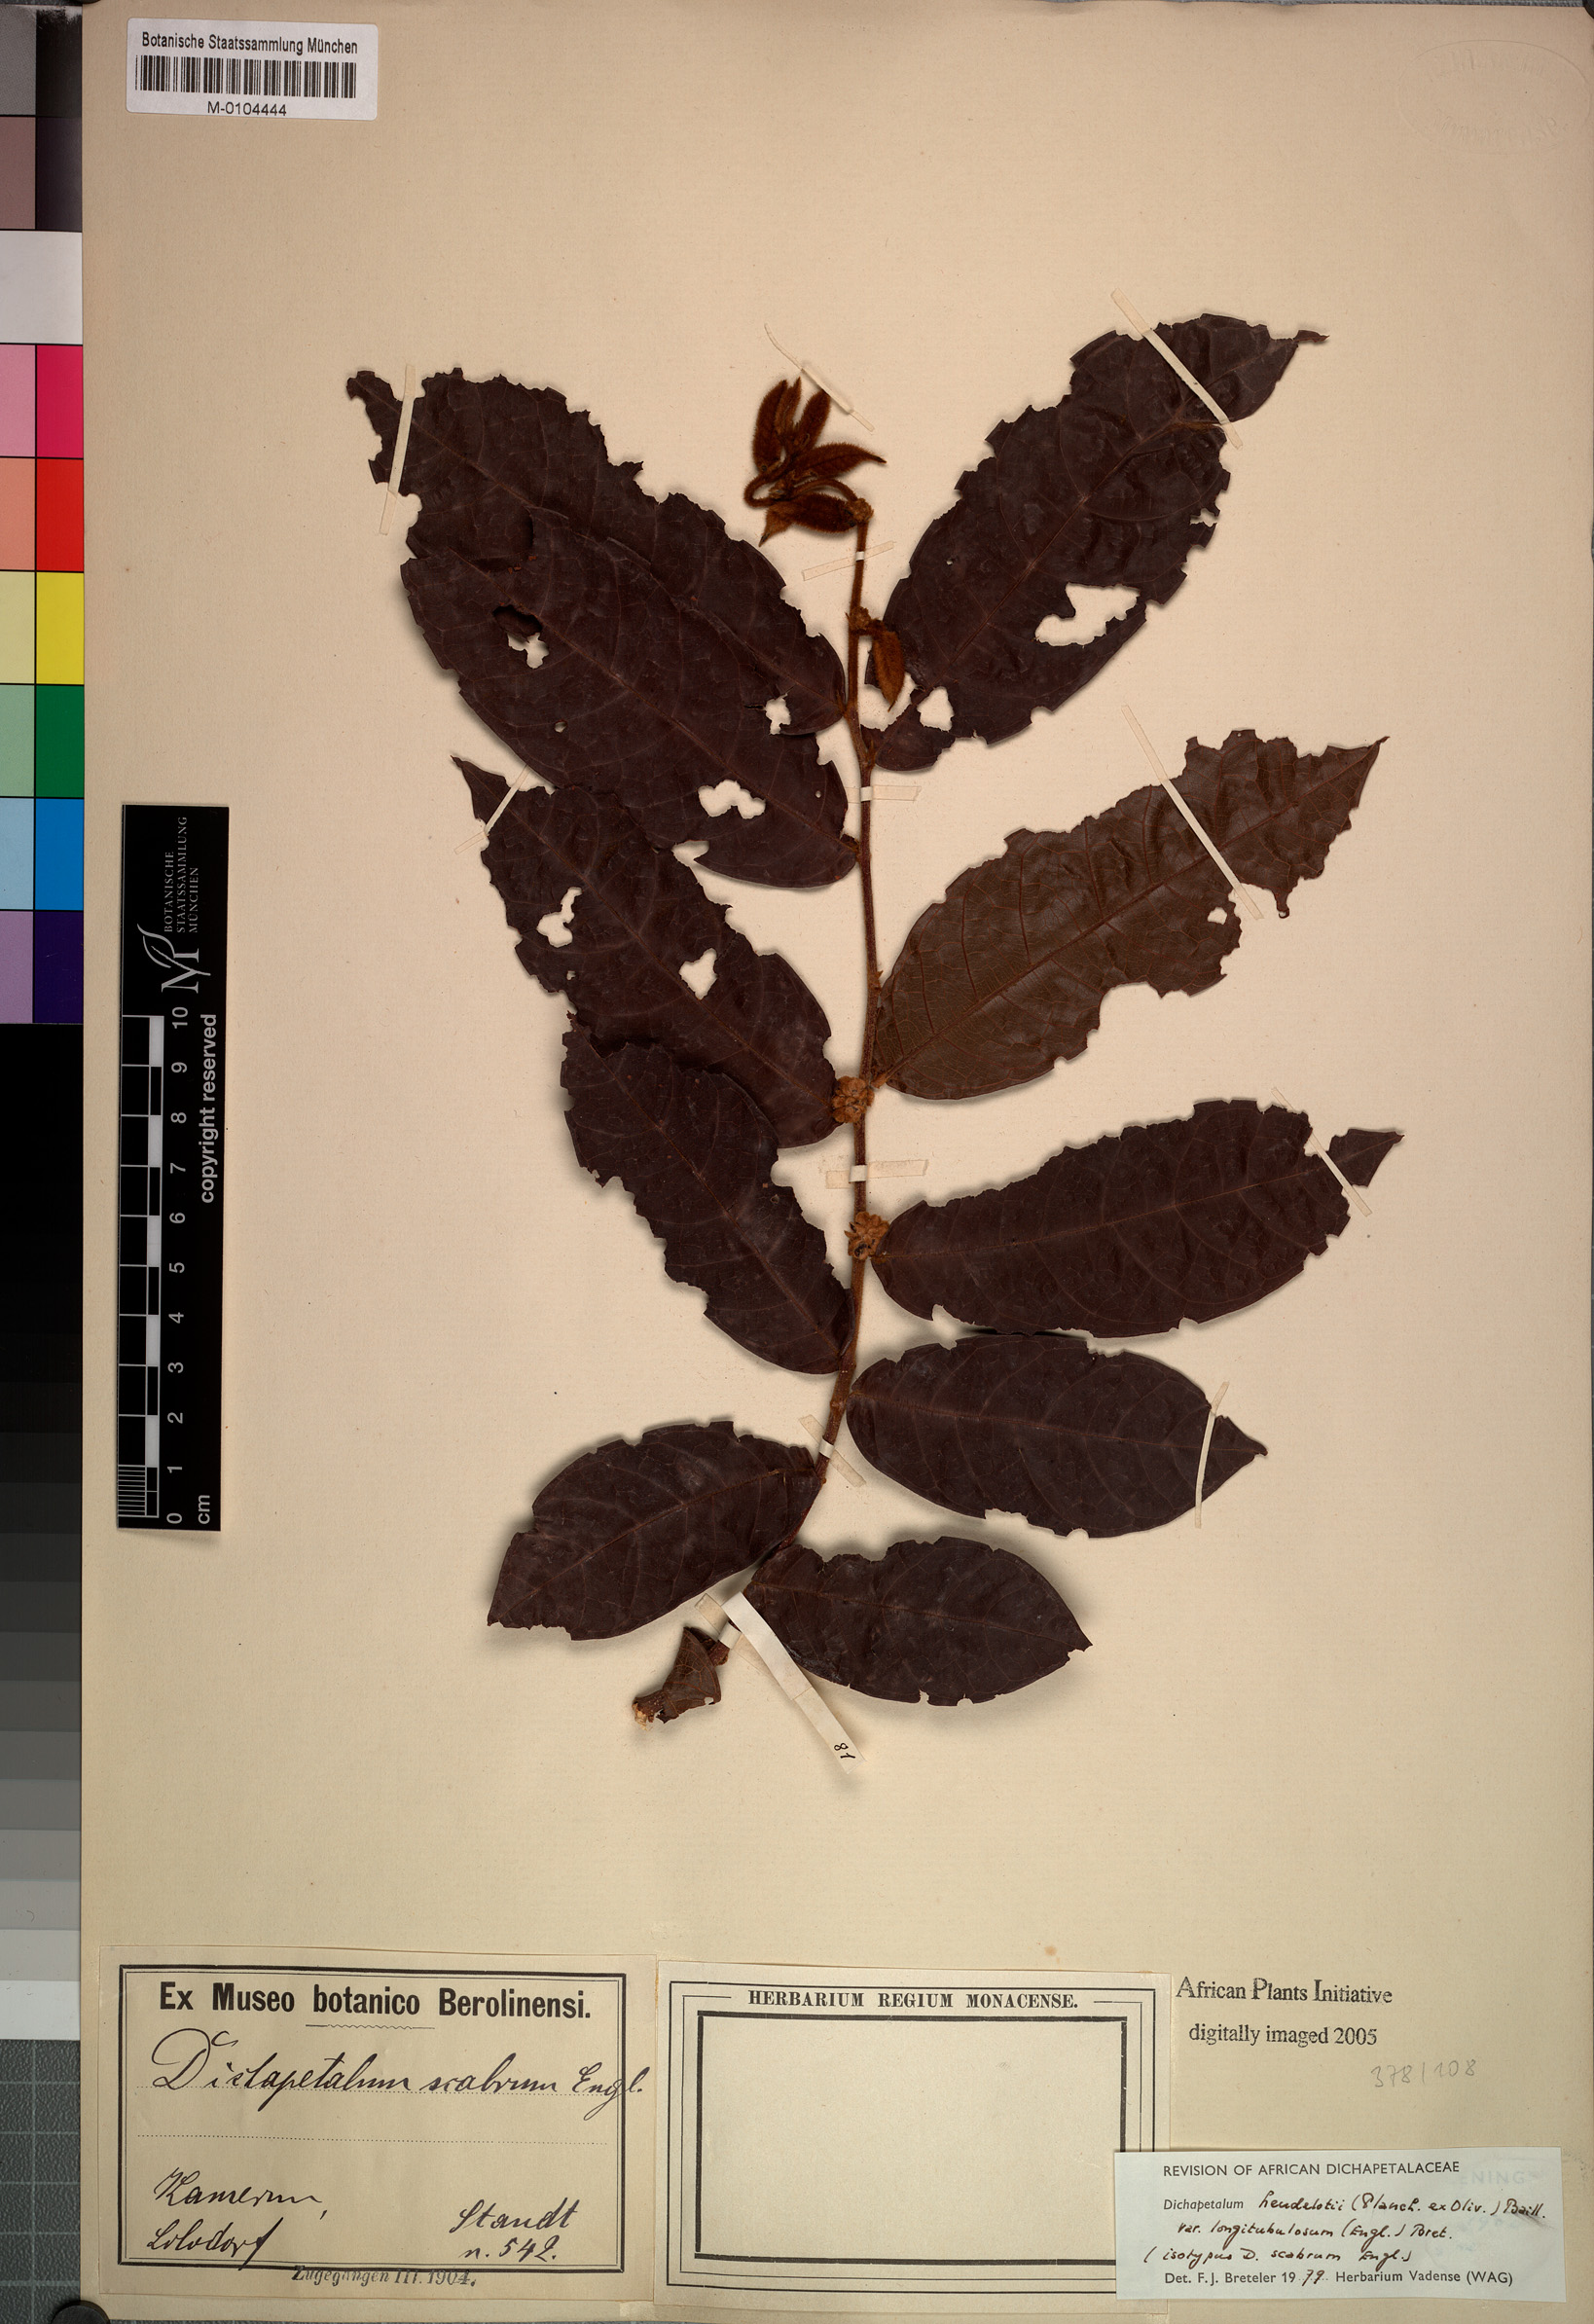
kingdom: Plantae
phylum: Tracheophyta
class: Magnoliopsida
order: Malpighiales
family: Dichapetalaceae
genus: Dichapetalum
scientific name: Dichapetalum heudelotii
